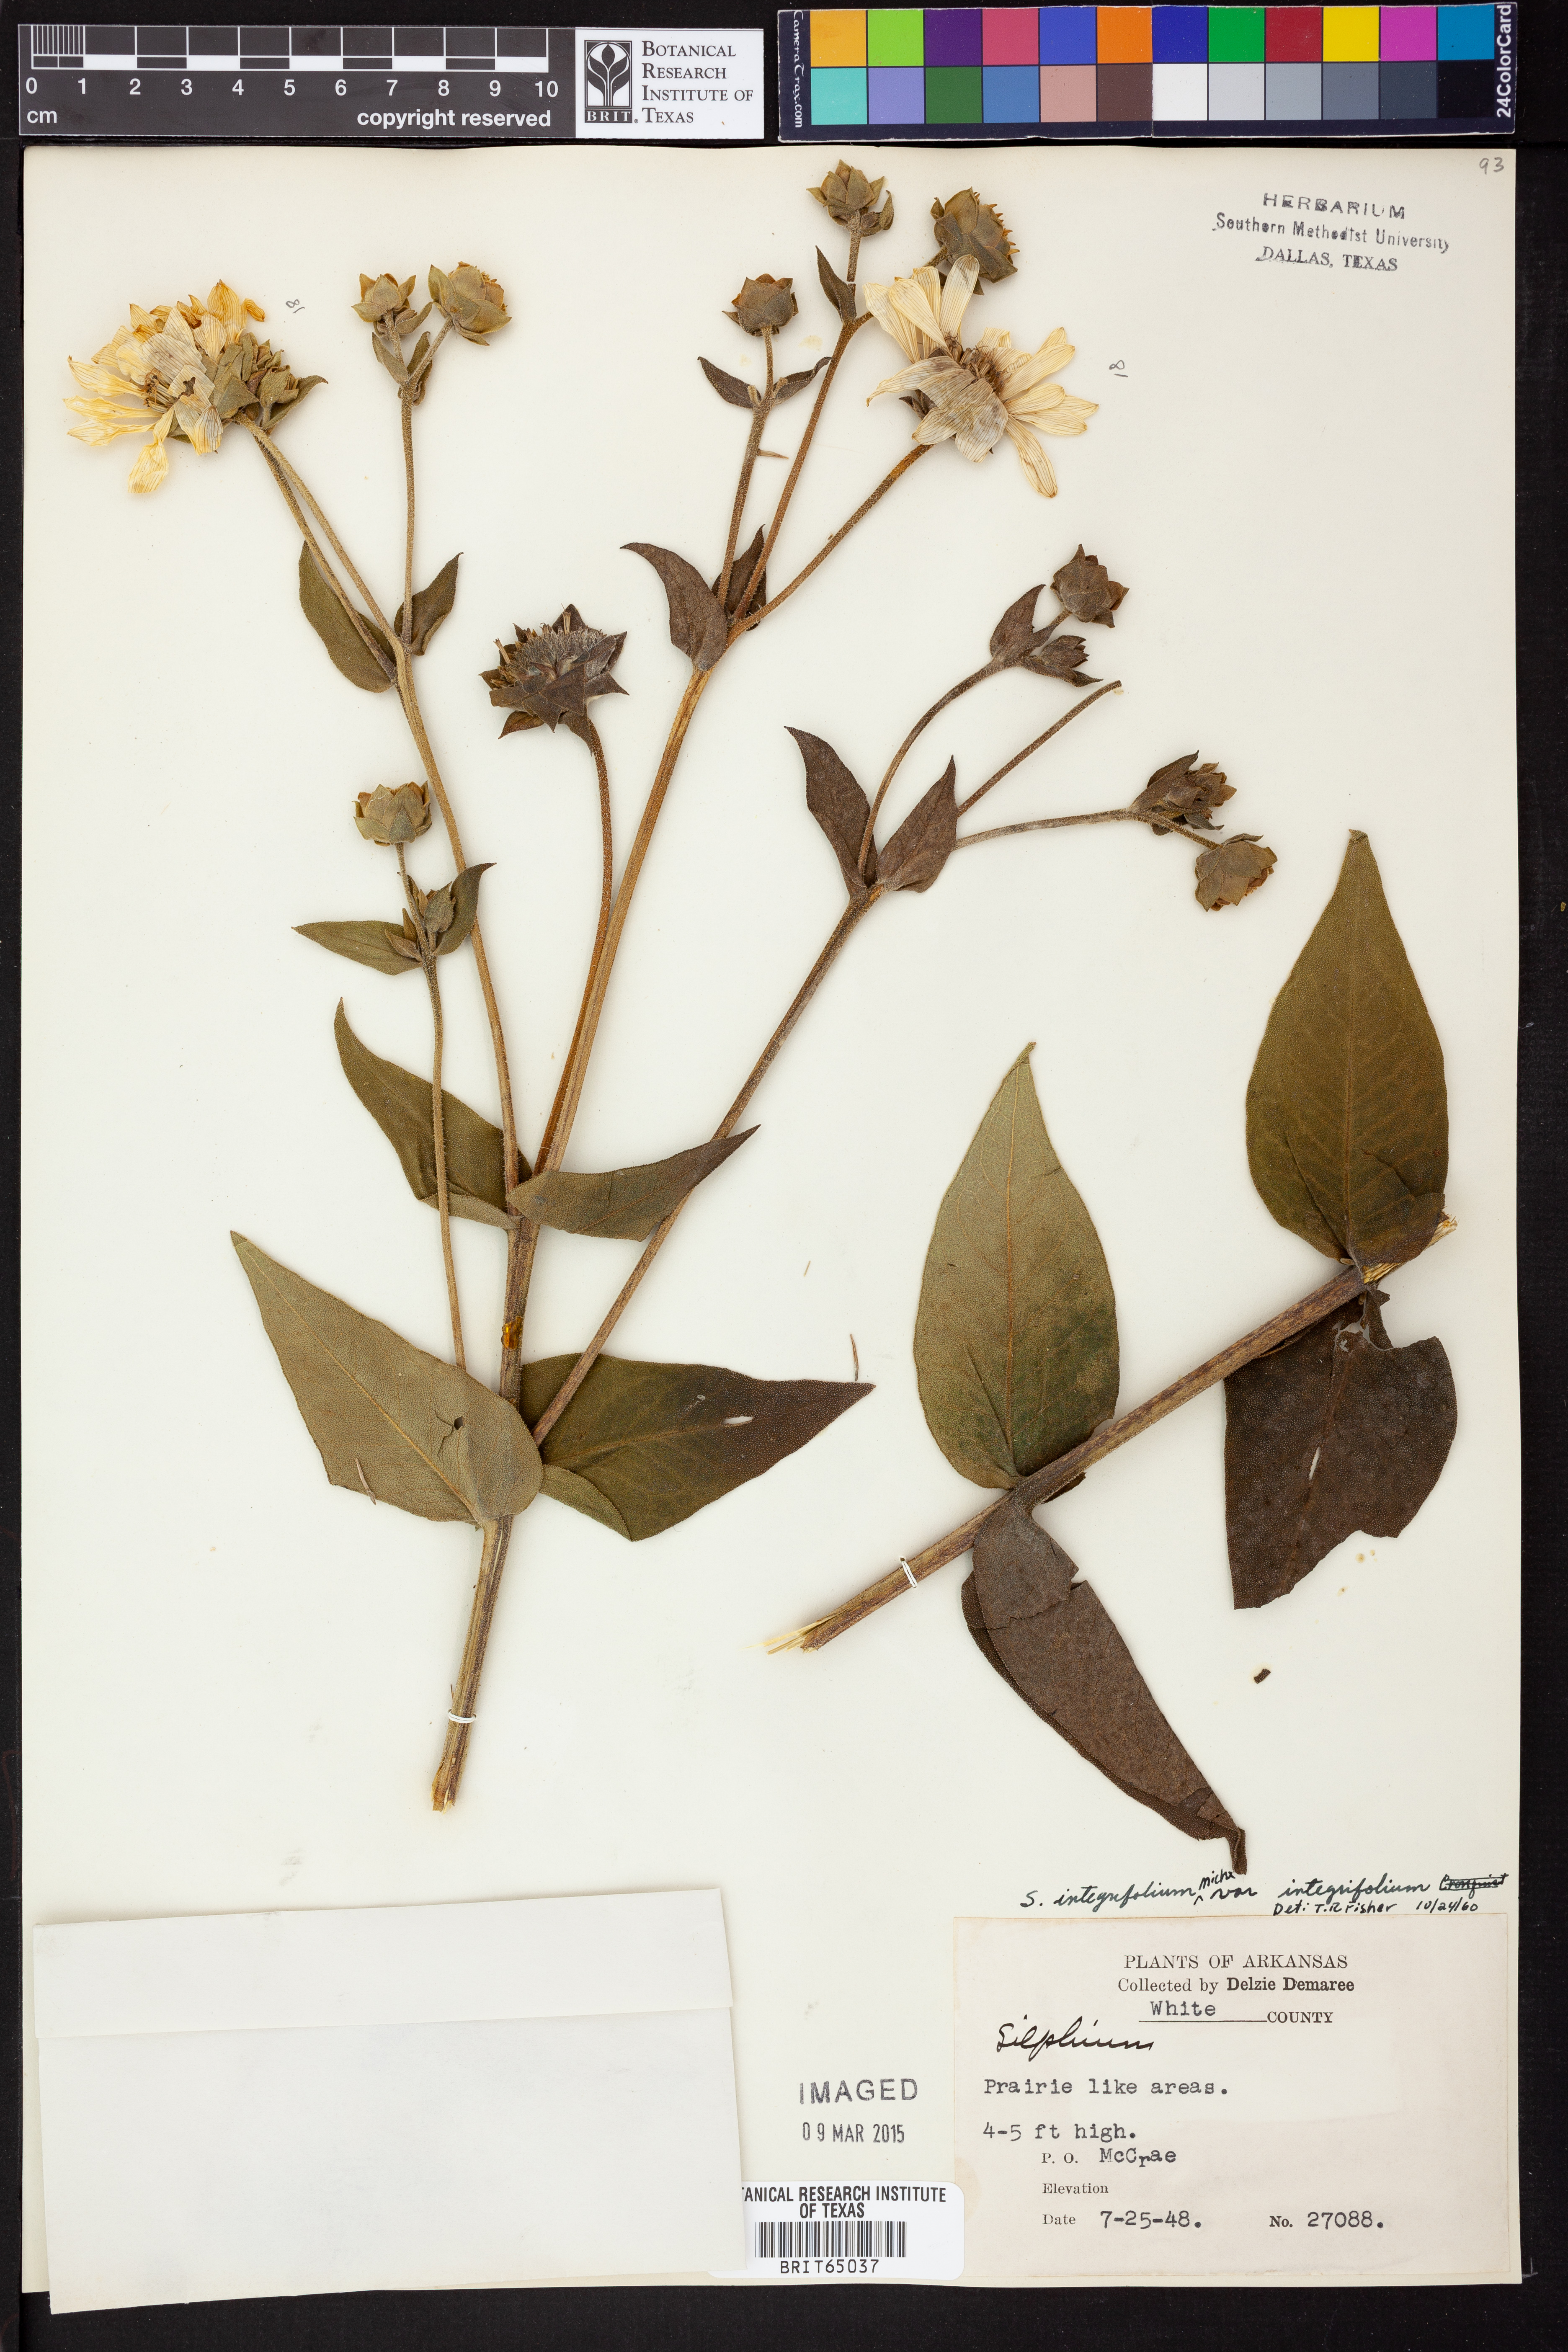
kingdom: Plantae
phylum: Tracheophyta
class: Magnoliopsida
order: Asterales
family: Asteraceae
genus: Silphium
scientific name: Silphium integrifolium
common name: Whole-leaf rosinweed
